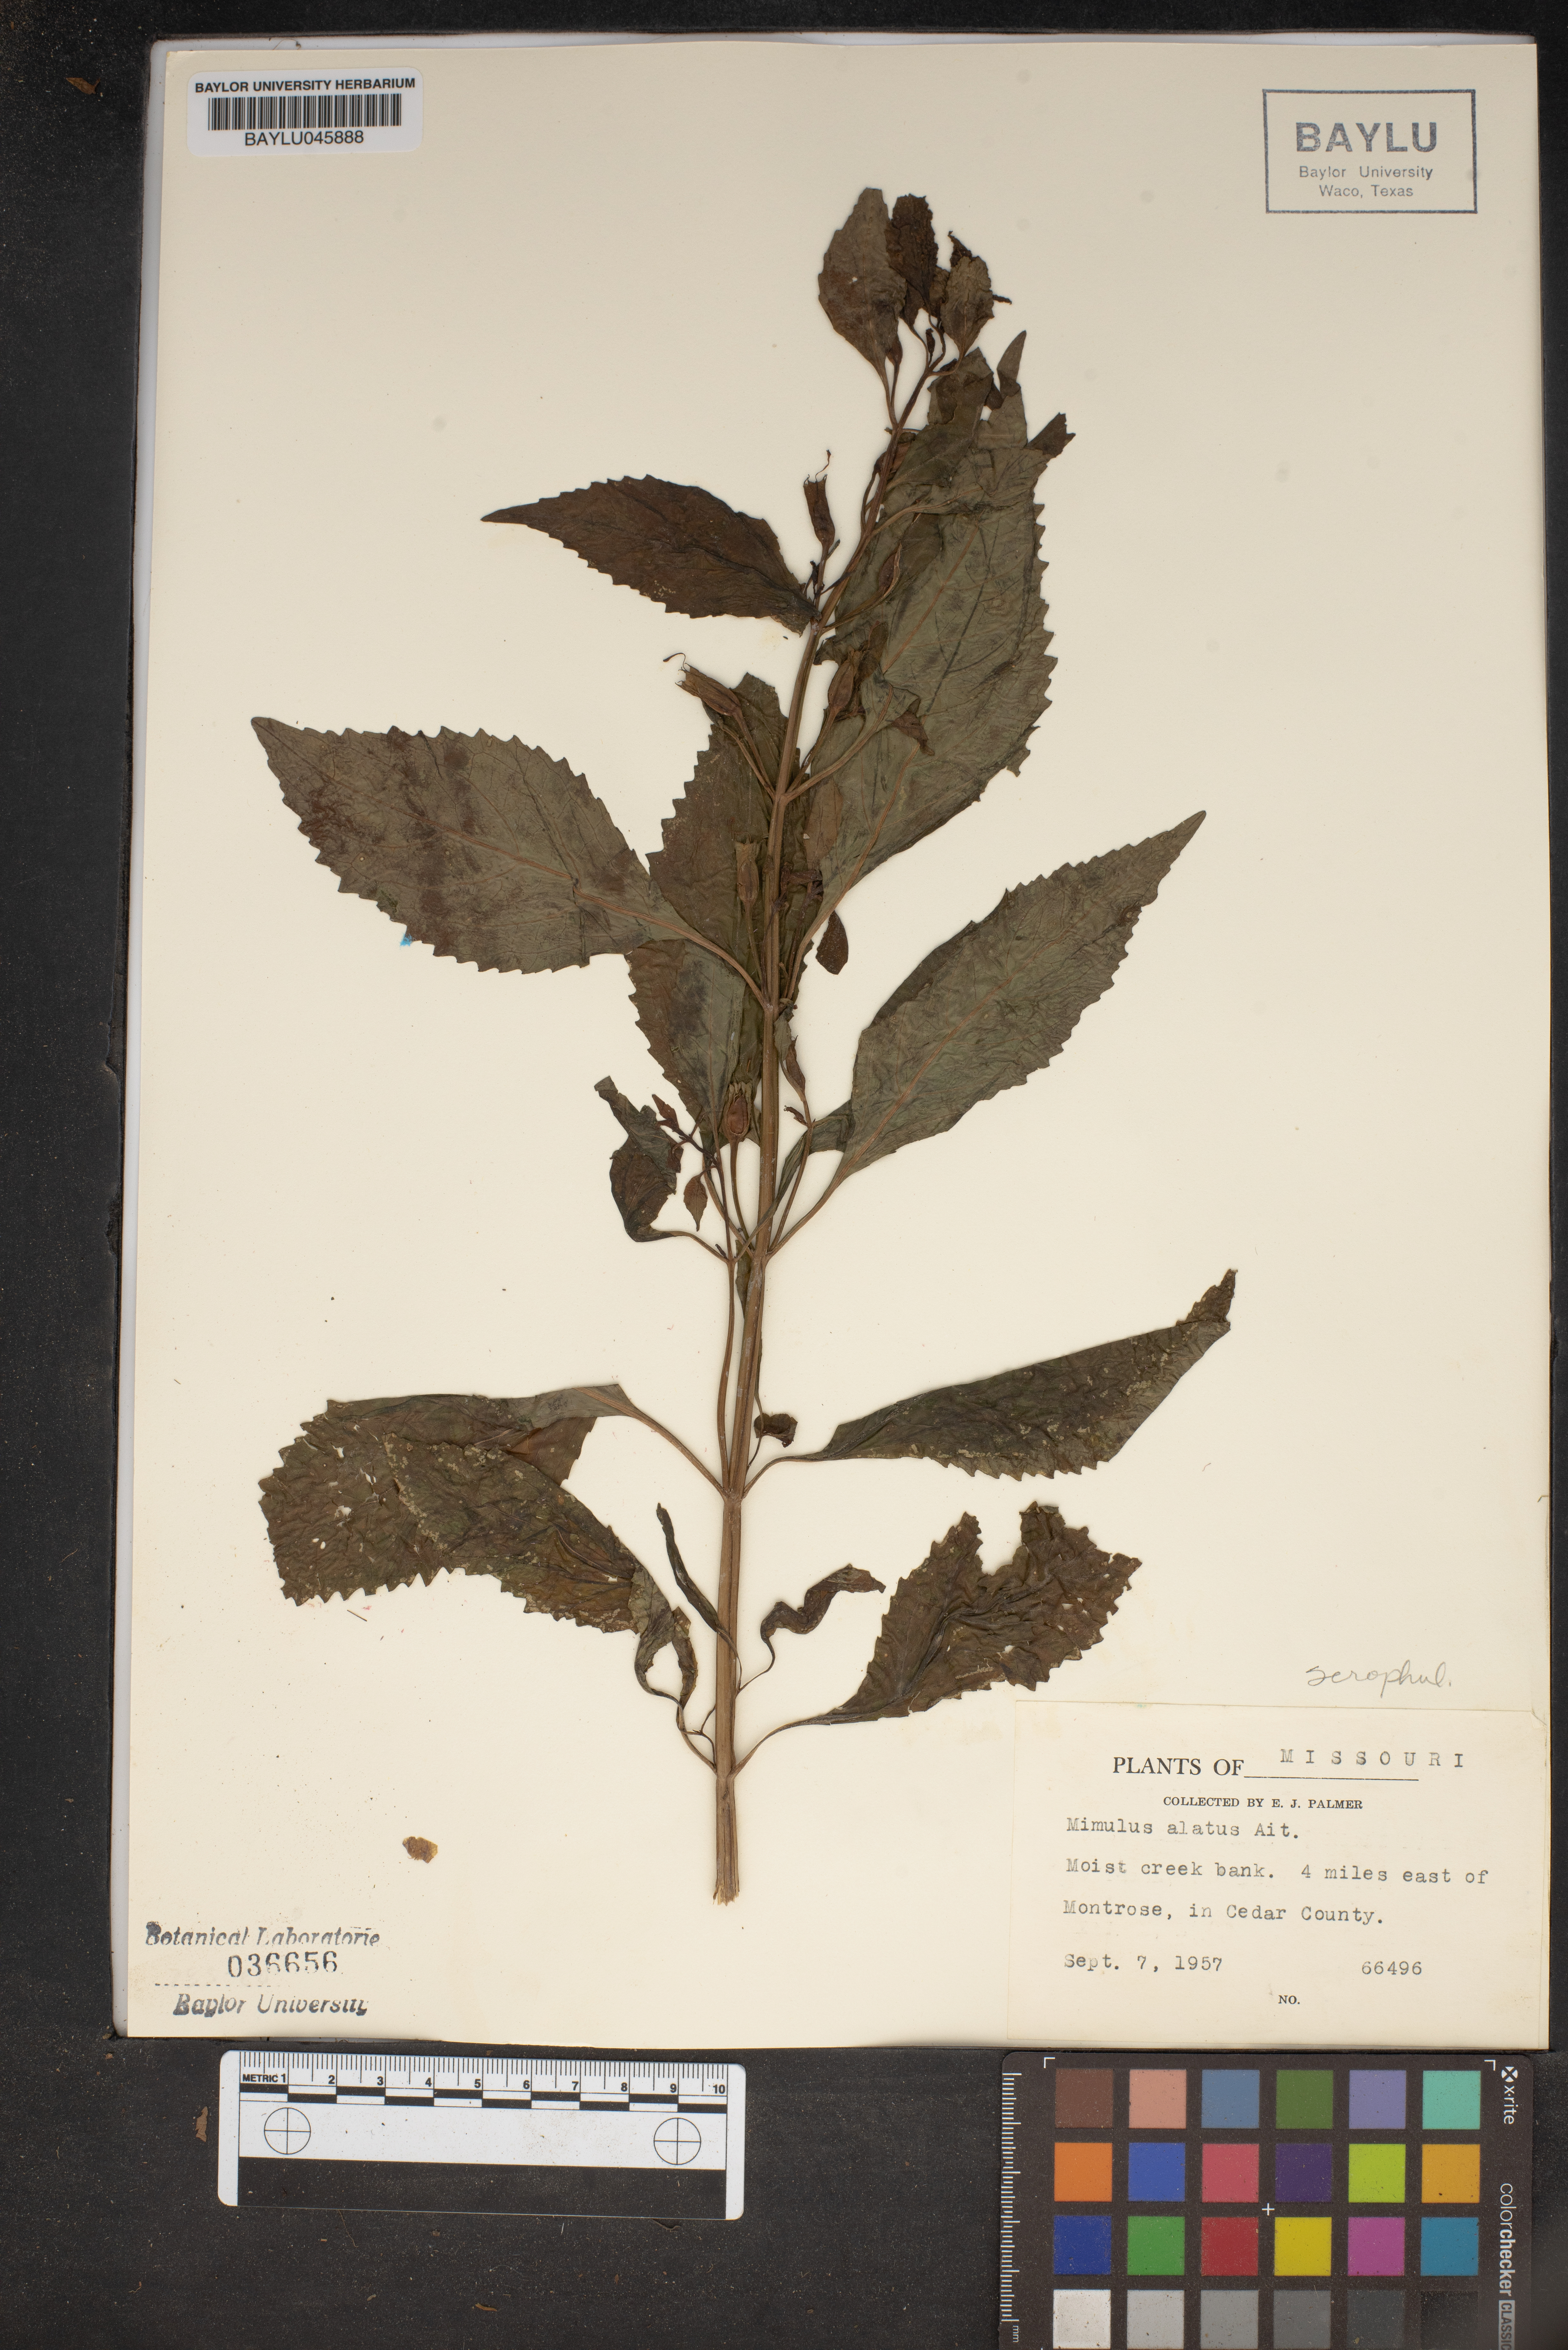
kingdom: Plantae
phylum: Tracheophyta
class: Magnoliopsida
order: Lamiales
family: Phrymaceae
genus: Mimulus
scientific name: Mimulus alatus
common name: Sharp-wing monkey-flower
